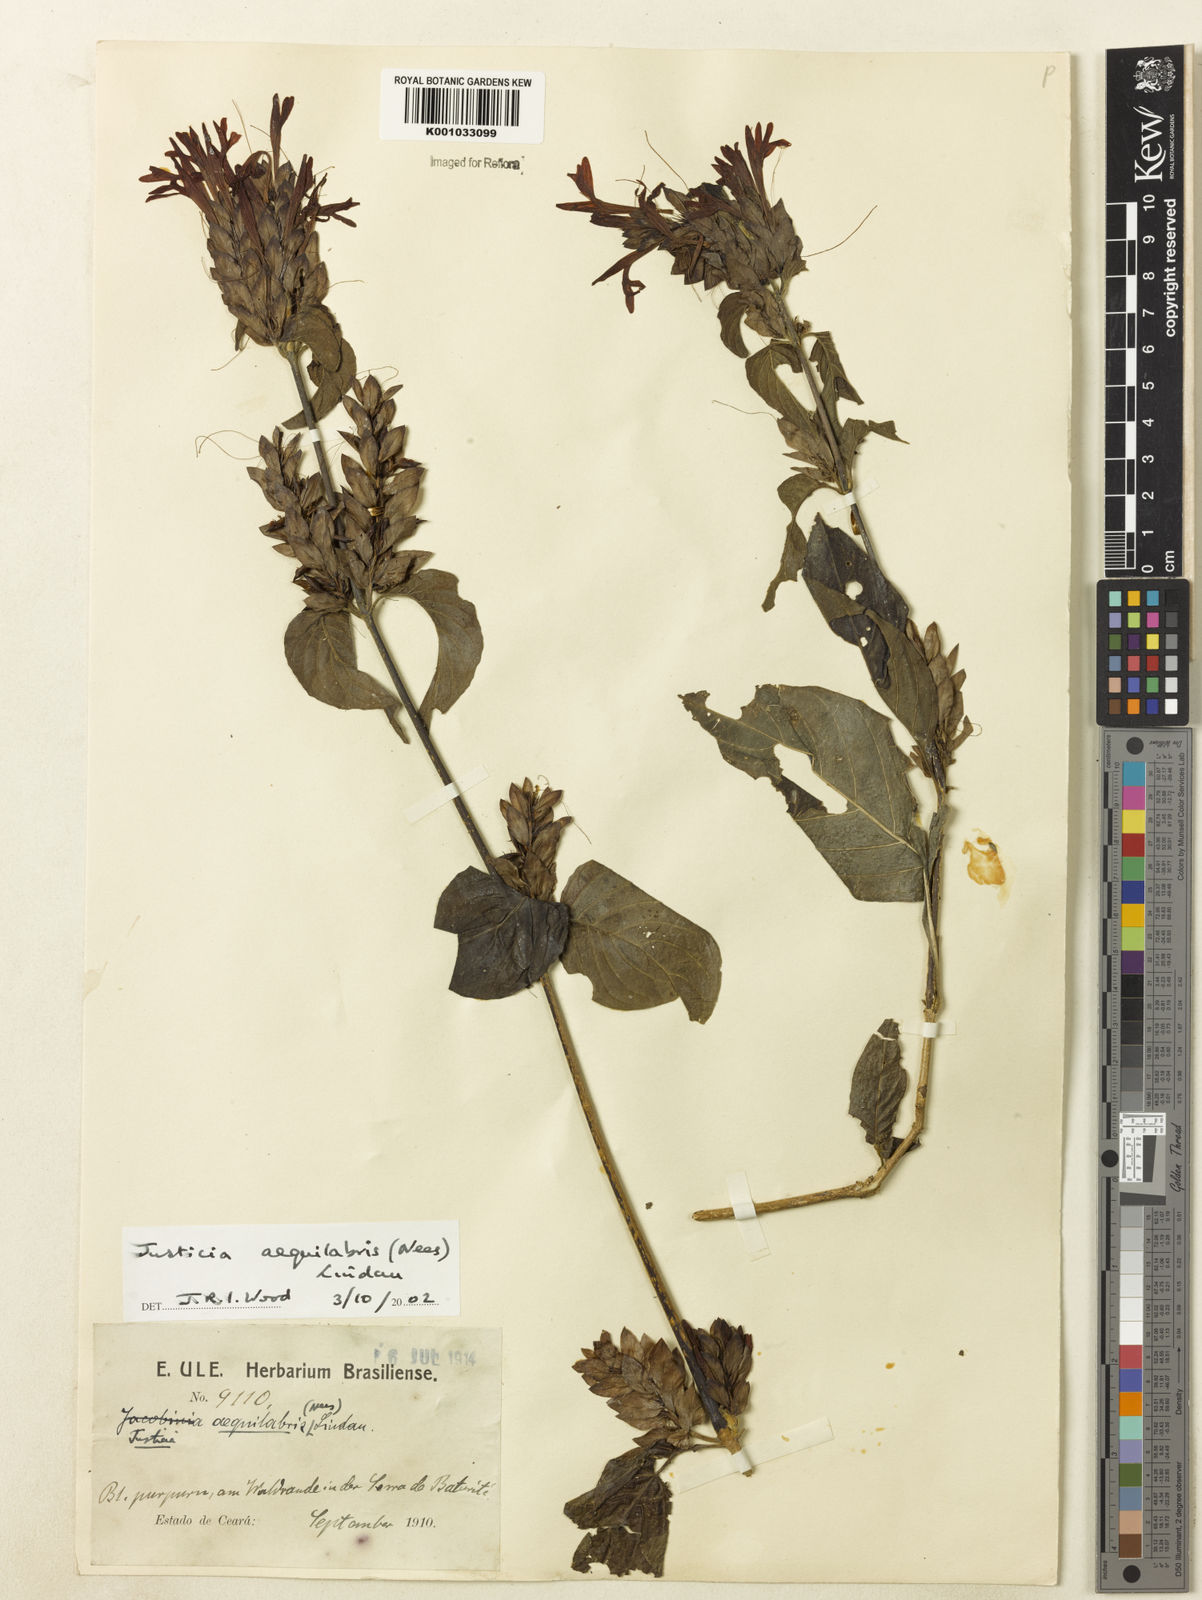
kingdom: Plantae
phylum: Tracheophyta
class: Magnoliopsida
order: Lamiales
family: Acanthaceae
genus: Justicia
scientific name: Justicia aequalis
